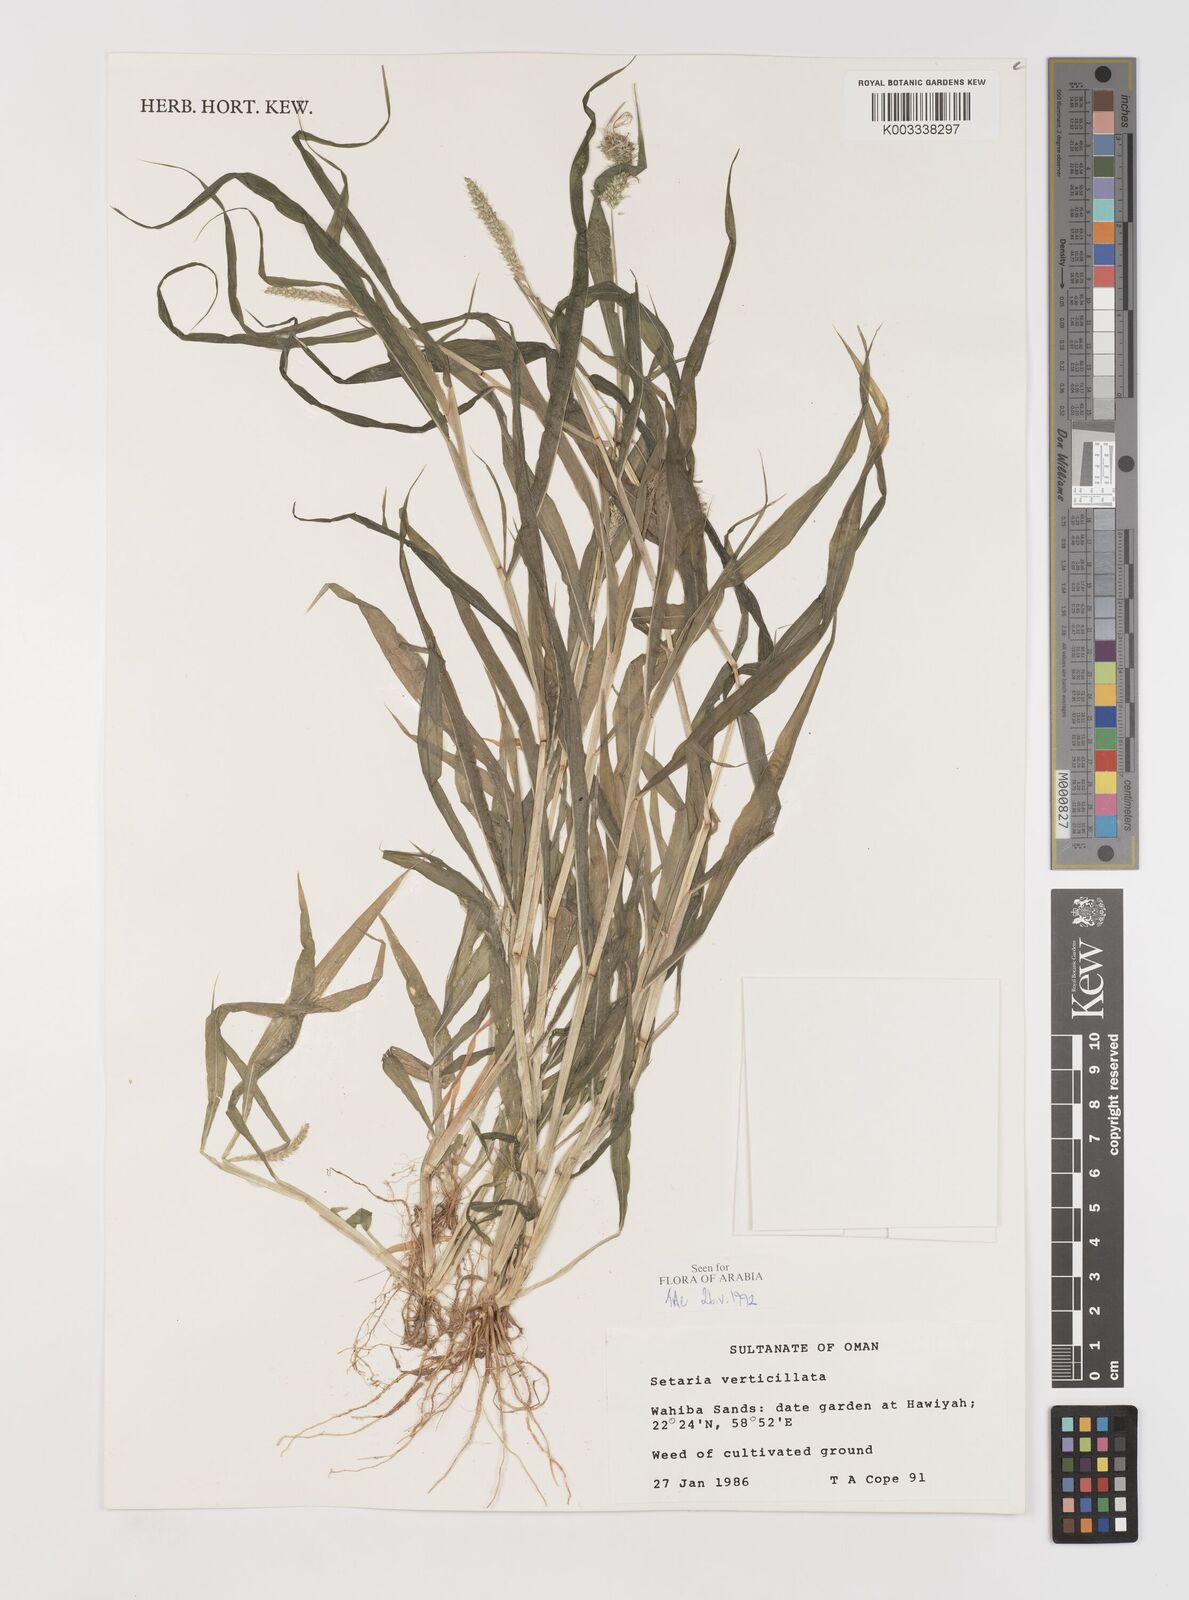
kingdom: Plantae
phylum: Tracheophyta
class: Liliopsida
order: Poales
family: Poaceae
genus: Setaria
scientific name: Setaria verticillata
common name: Hooked bristlegrass
